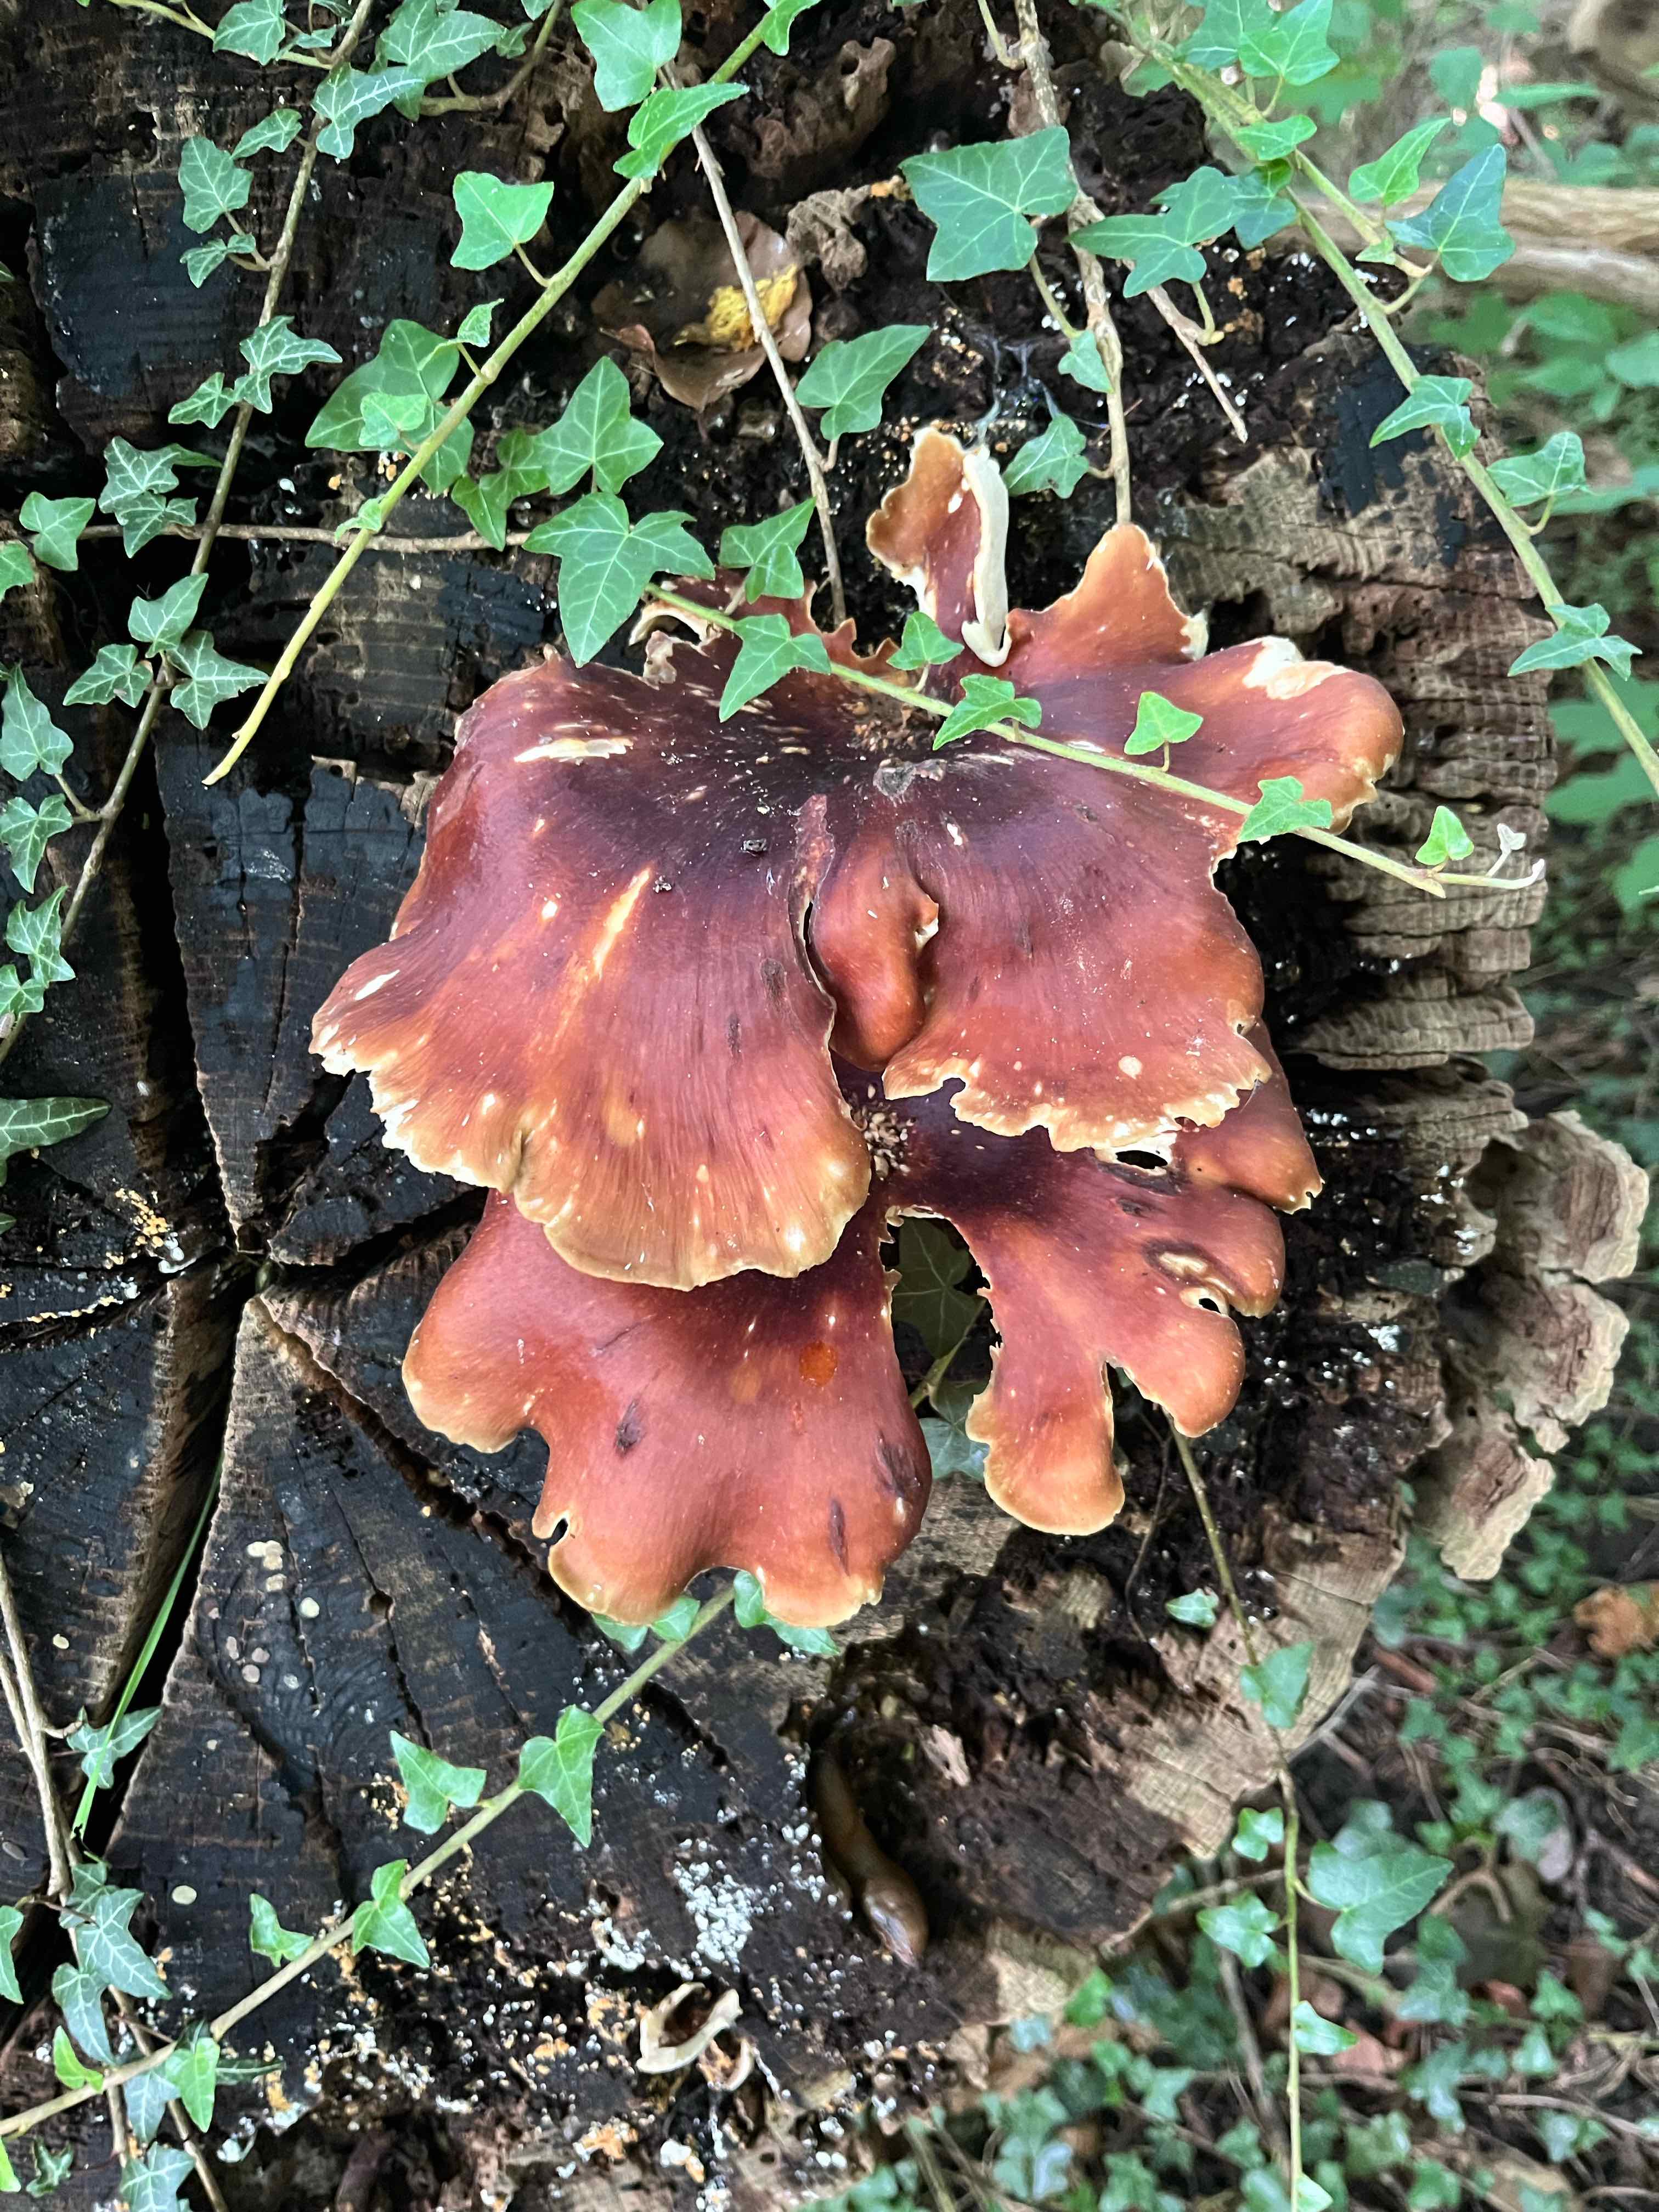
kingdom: Fungi
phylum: Basidiomycota
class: Agaricomycetes
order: Polyporales
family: Polyporaceae
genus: Picipes
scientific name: Picipes badius
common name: kastaniebrun stilkporesvamp
